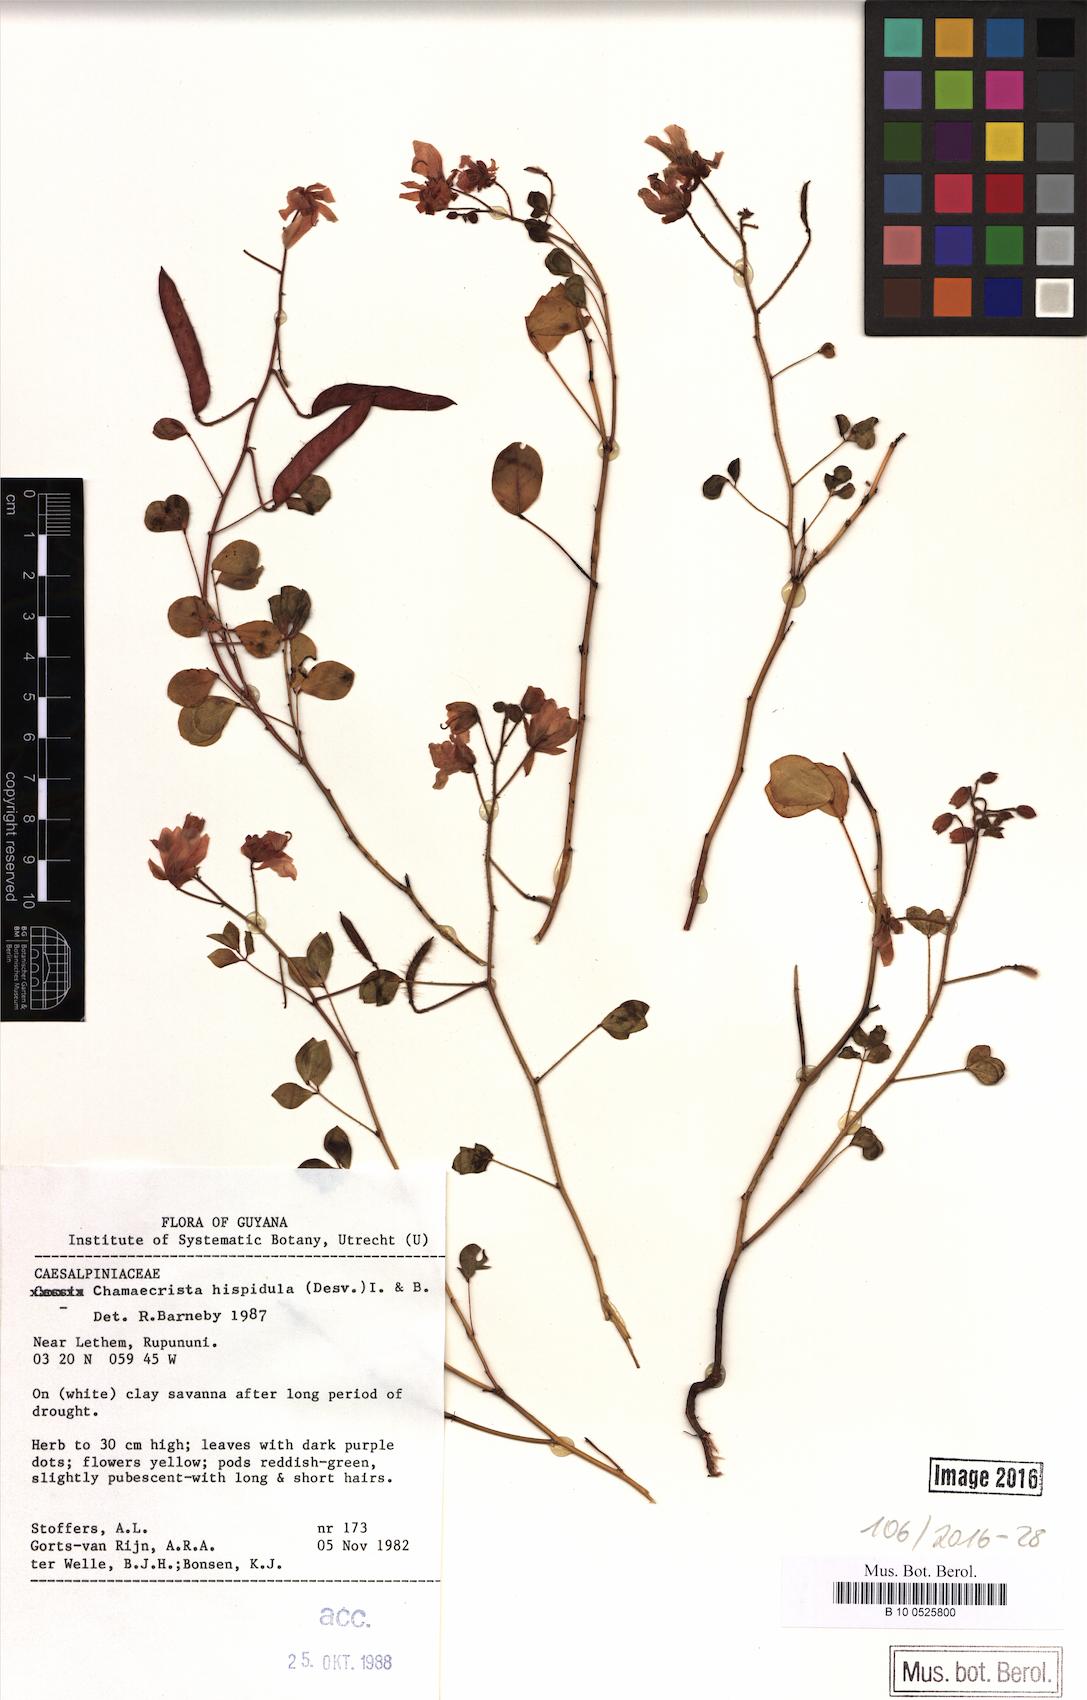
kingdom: Plantae
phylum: Tracheophyta
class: Magnoliopsida
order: Fabales
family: Fabaceae
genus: Chamaecrista
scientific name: Chamaecrista hispidula
